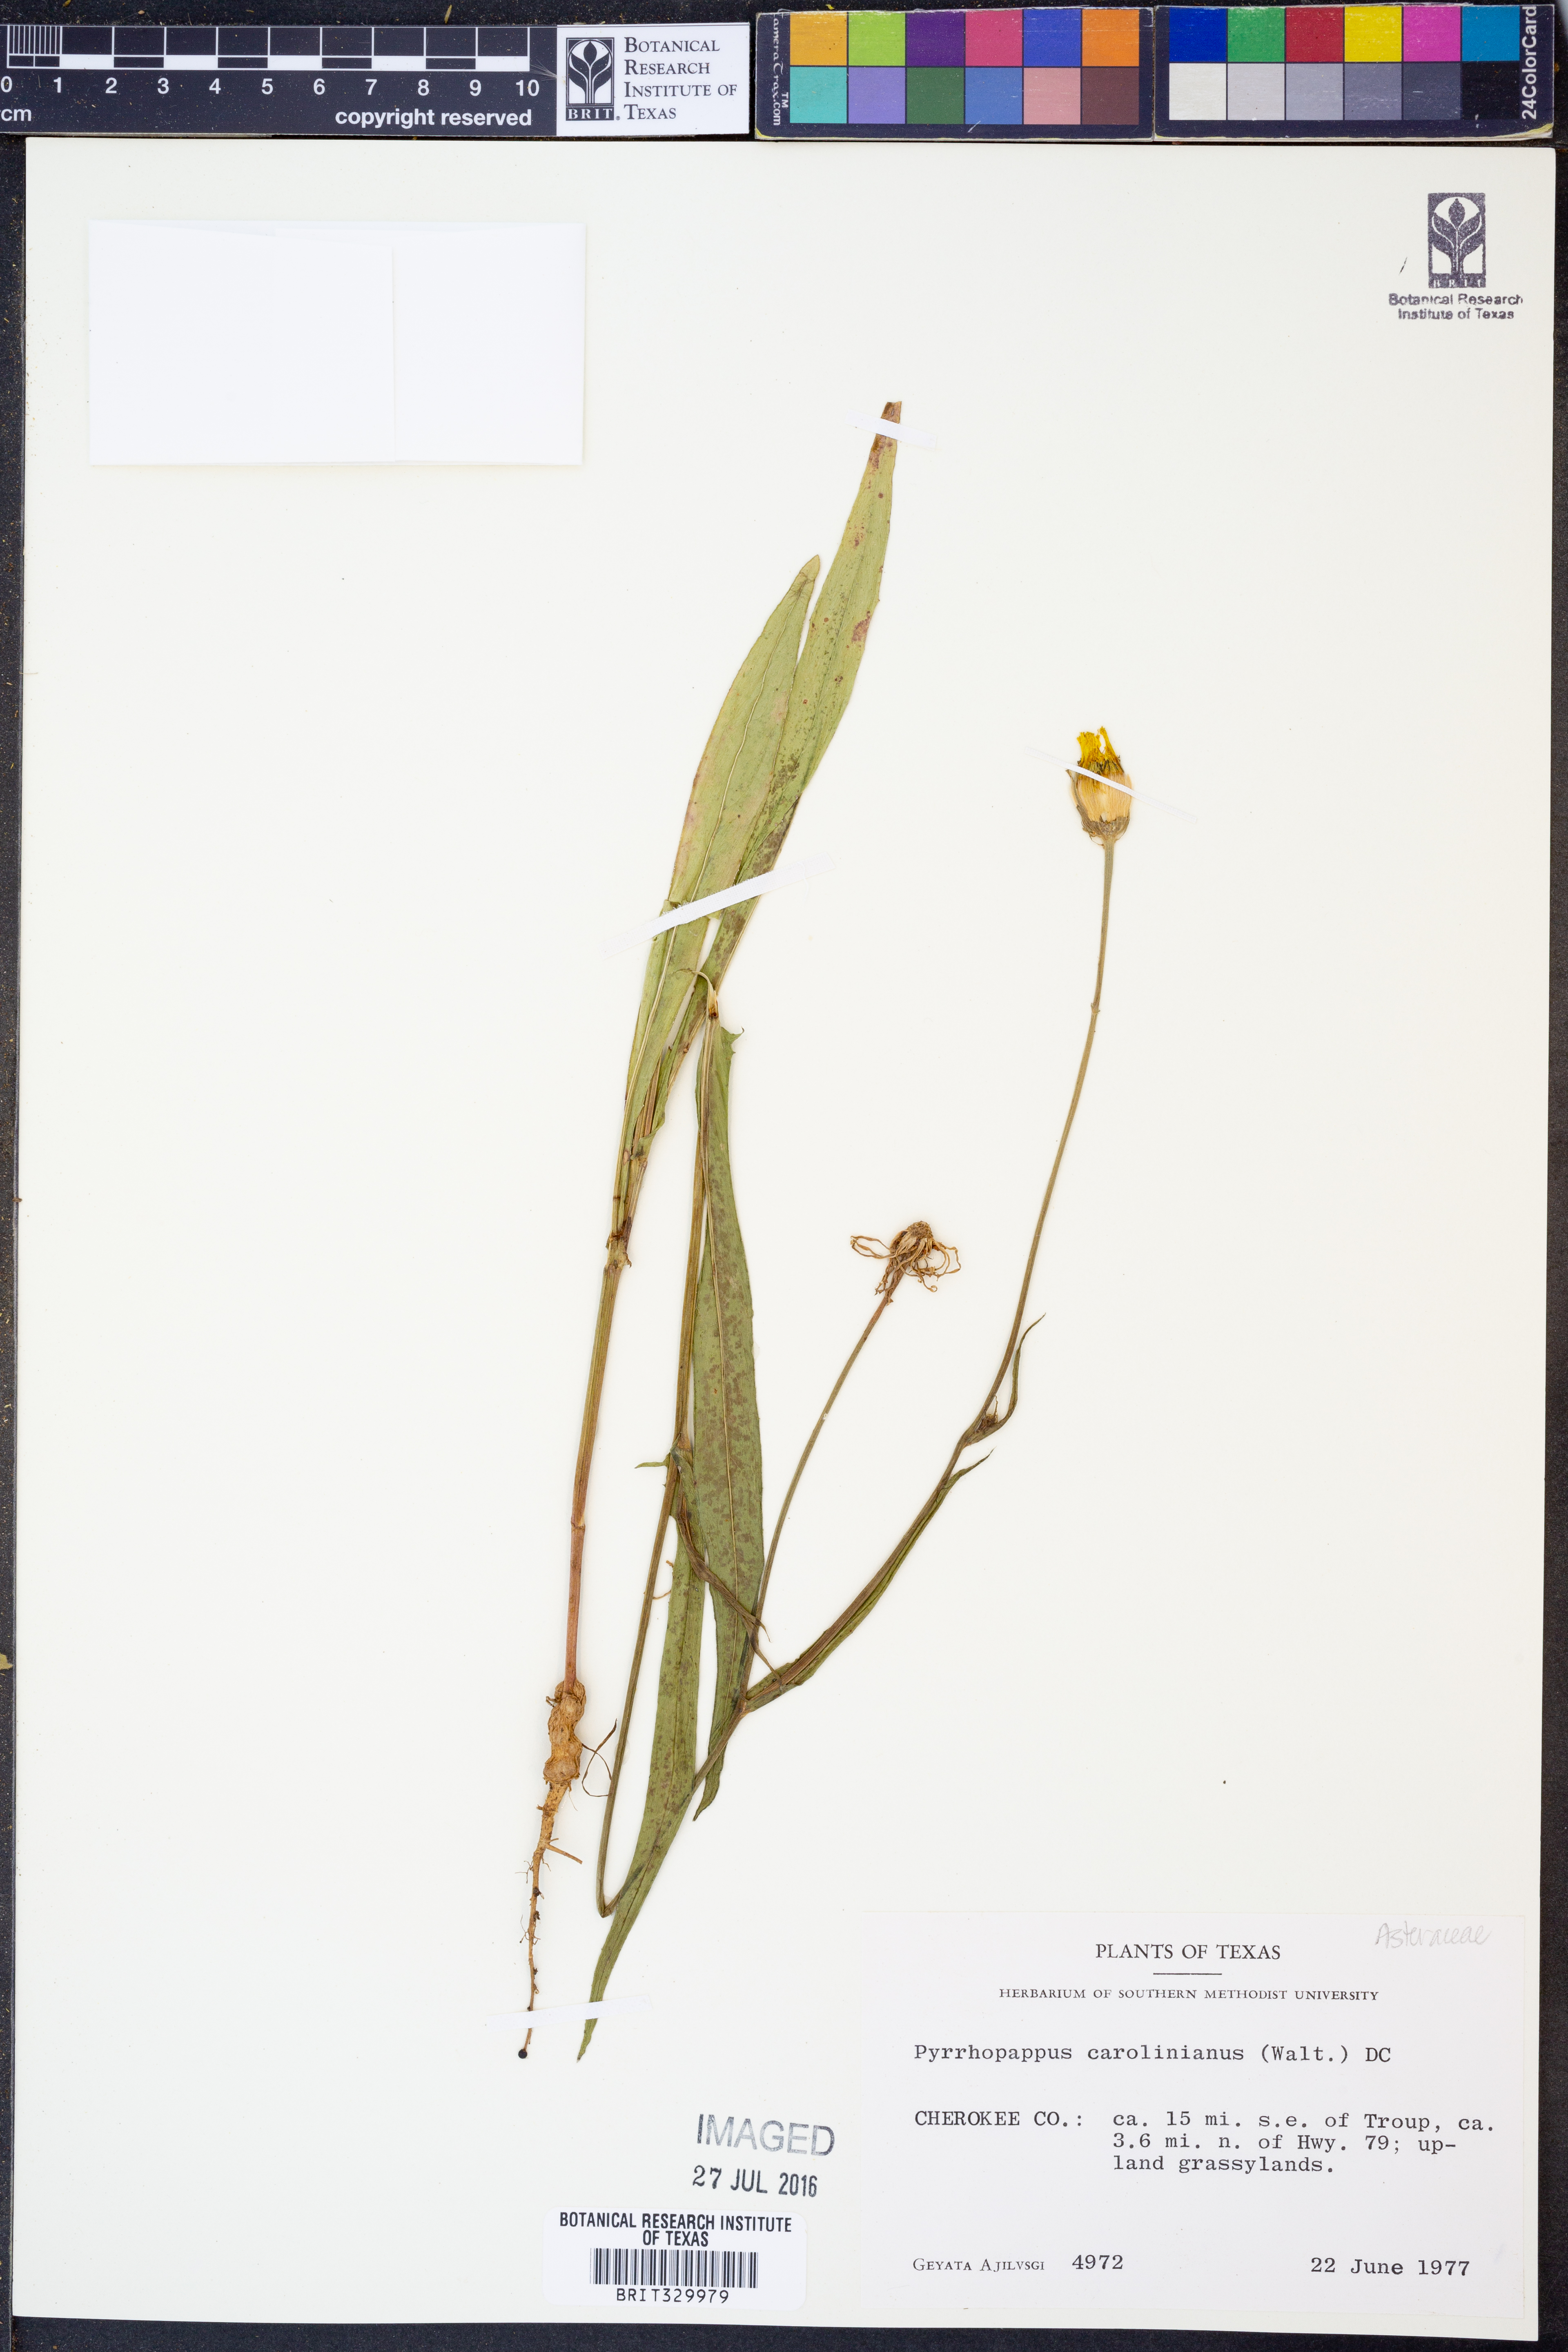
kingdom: Plantae
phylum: Tracheophyta
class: Magnoliopsida
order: Asterales
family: Asteraceae
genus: Pyrrhopappus
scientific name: Pyrrhopappus carolinianus
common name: Carolina desert-chicory
